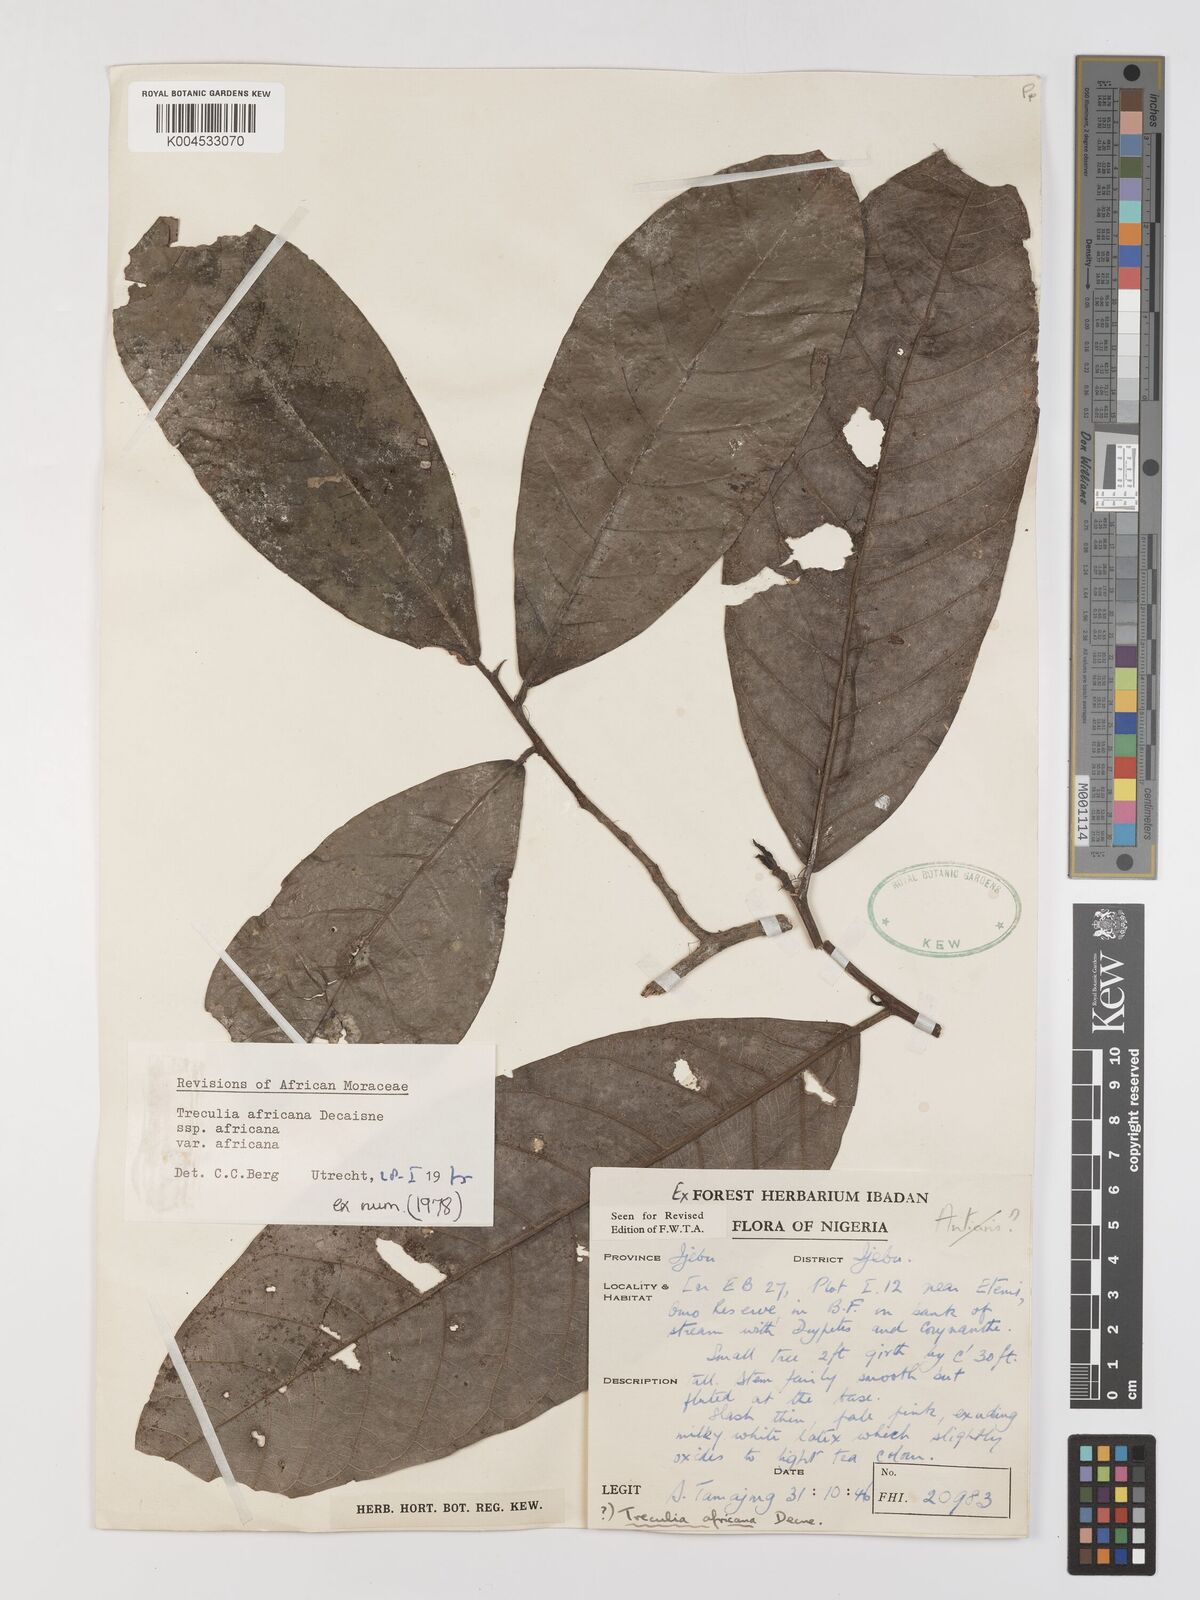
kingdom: Plantae
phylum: Tracheophyta
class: Magnoliopsida
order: Rosales
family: Moraceae
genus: Treculia
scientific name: Treculia africana
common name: African breadfruit
